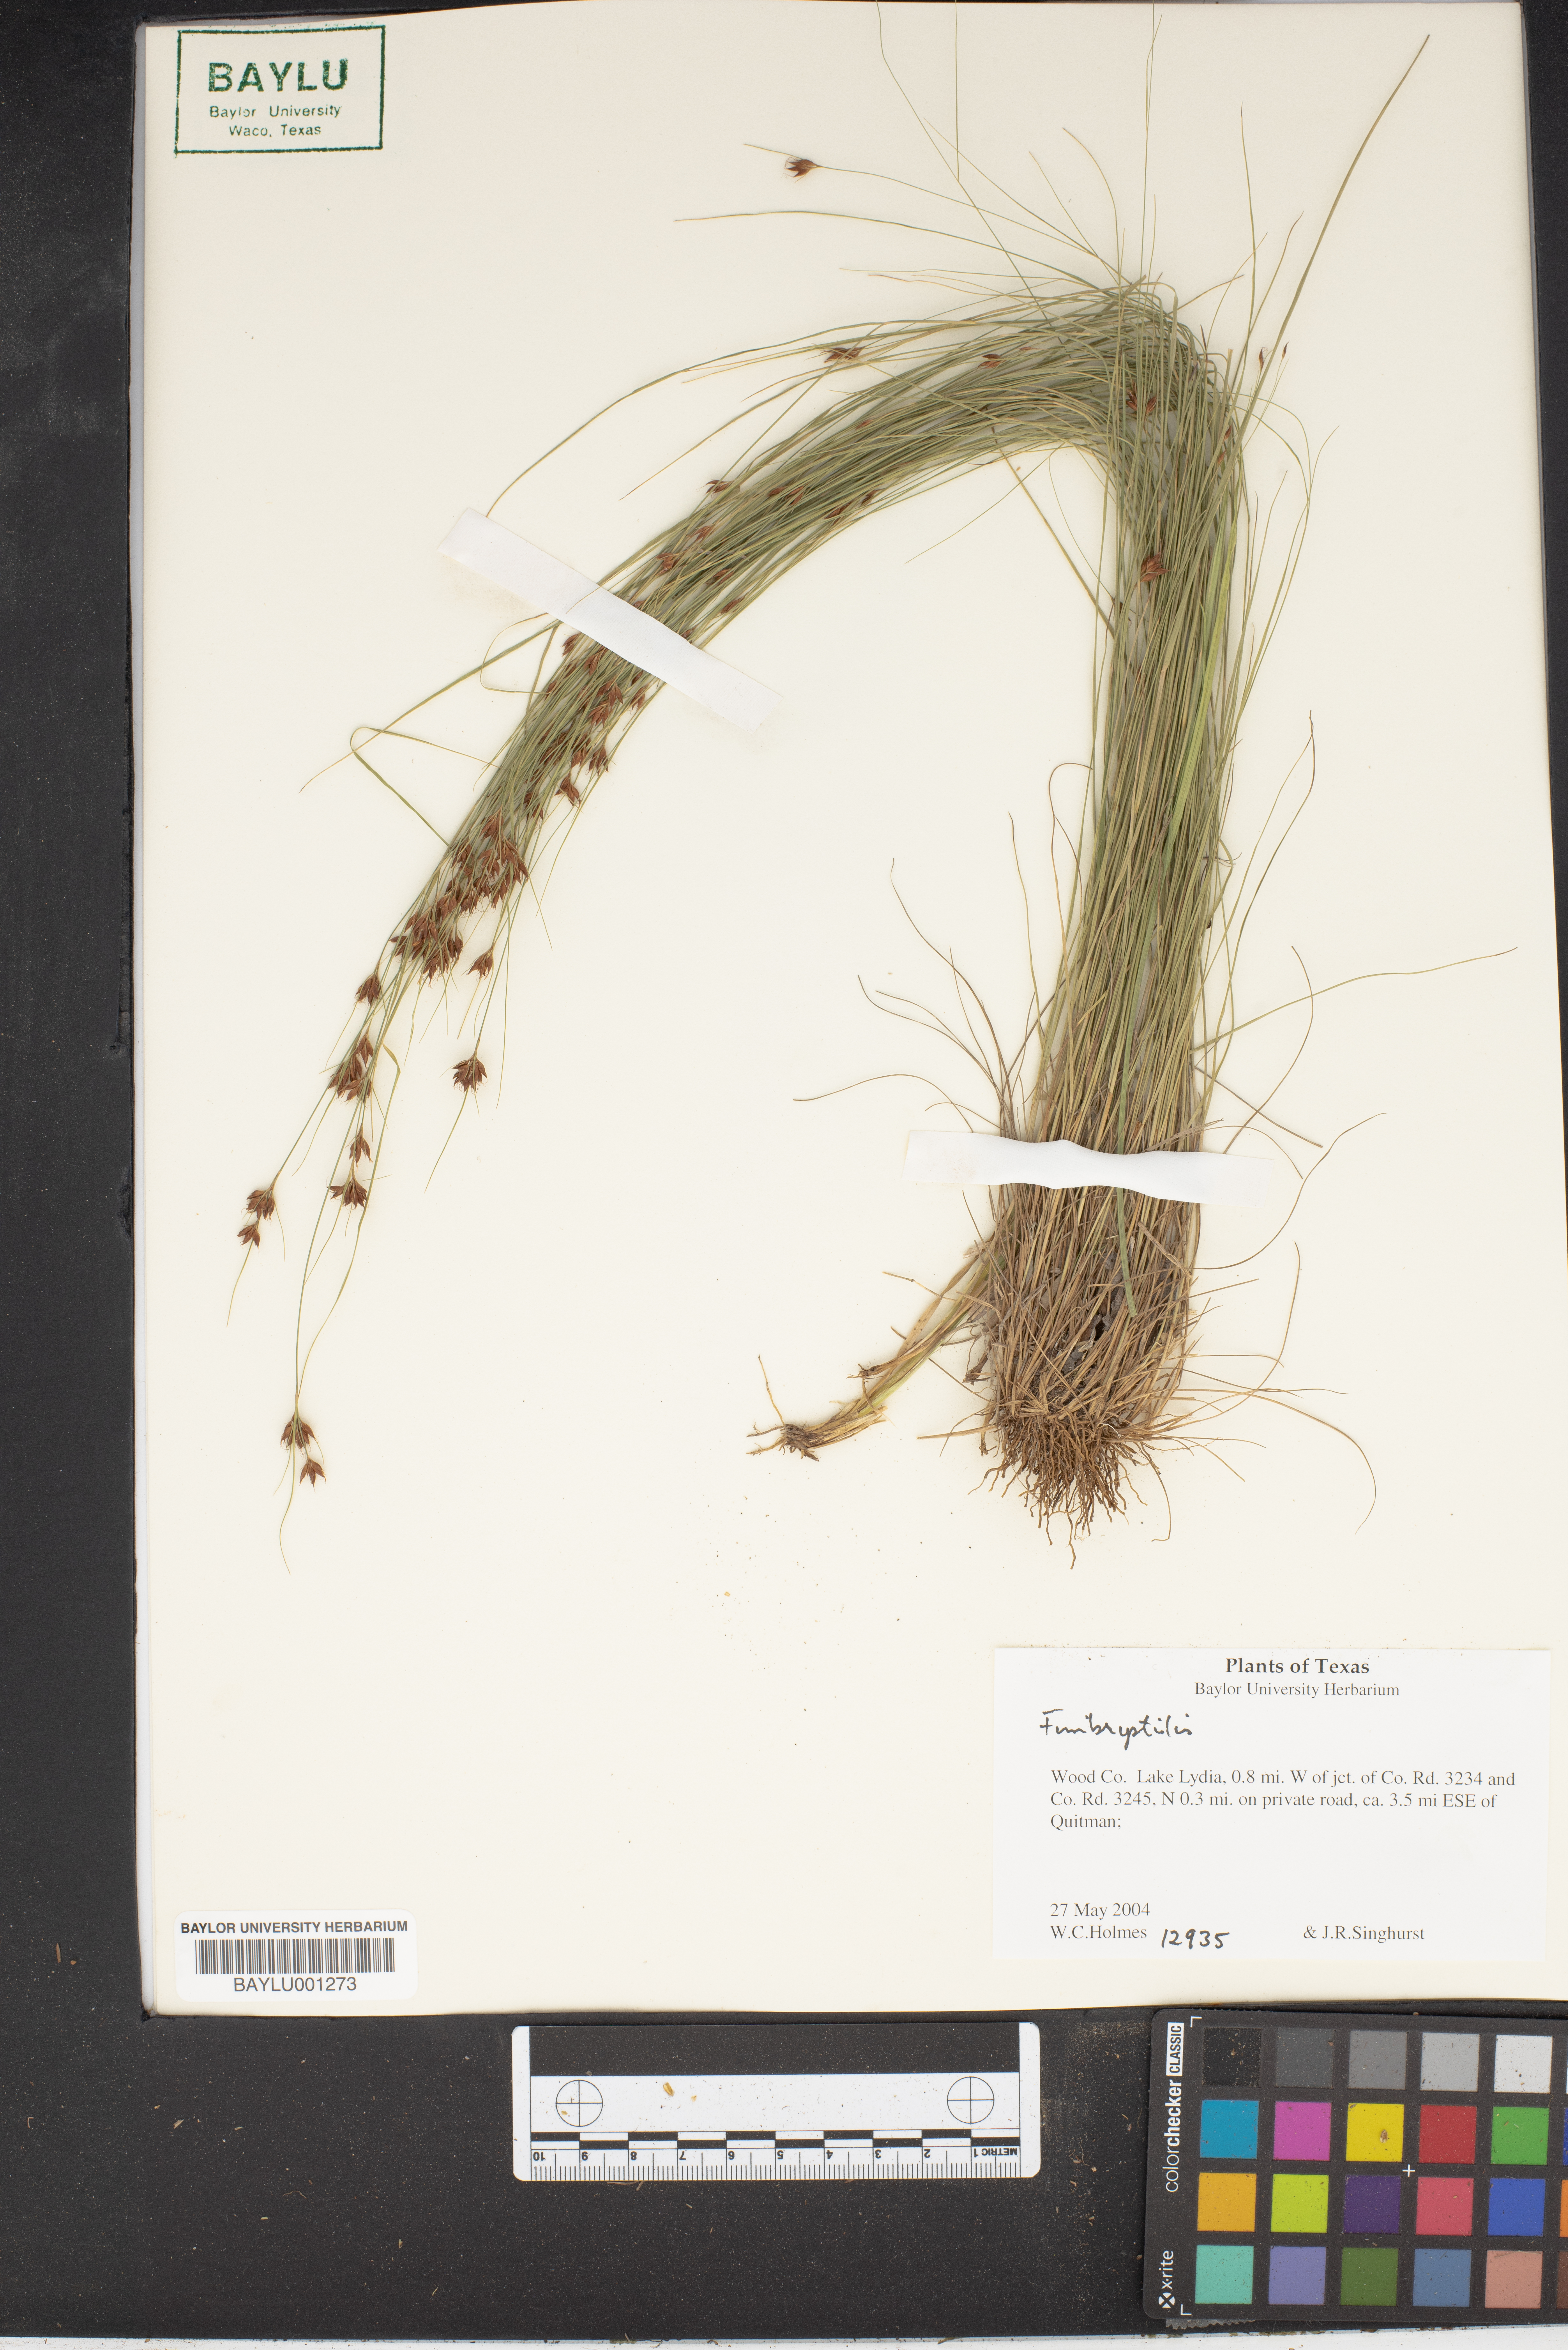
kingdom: Plantae
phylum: Tracheophyta
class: Liliopsida
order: Poales
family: Cyperaceae
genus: Fimbristylis
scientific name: Fimbristylis
